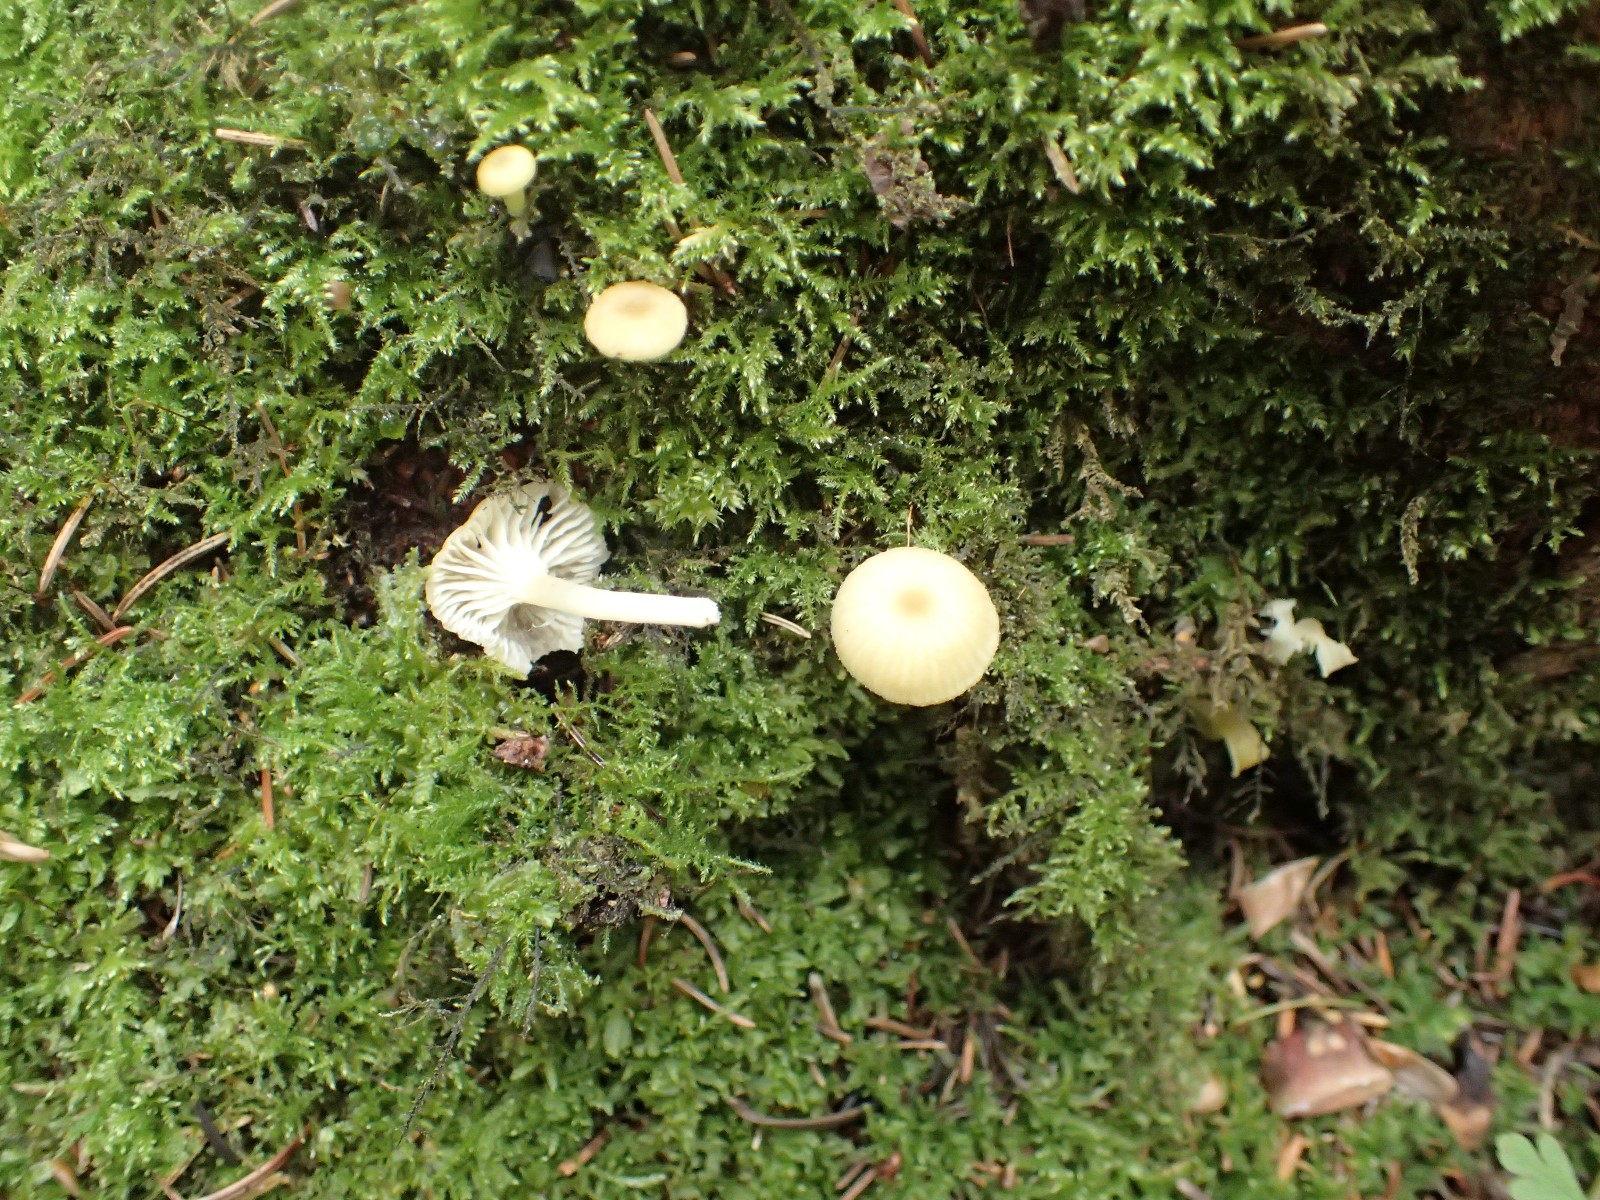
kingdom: Fungi
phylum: Basidiomycota
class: Agaricomycetes
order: Agaricales
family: Hygrophoraceae
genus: Chrysomphalina
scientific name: Chrysomphalina grossula
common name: stød-gyldenblad
